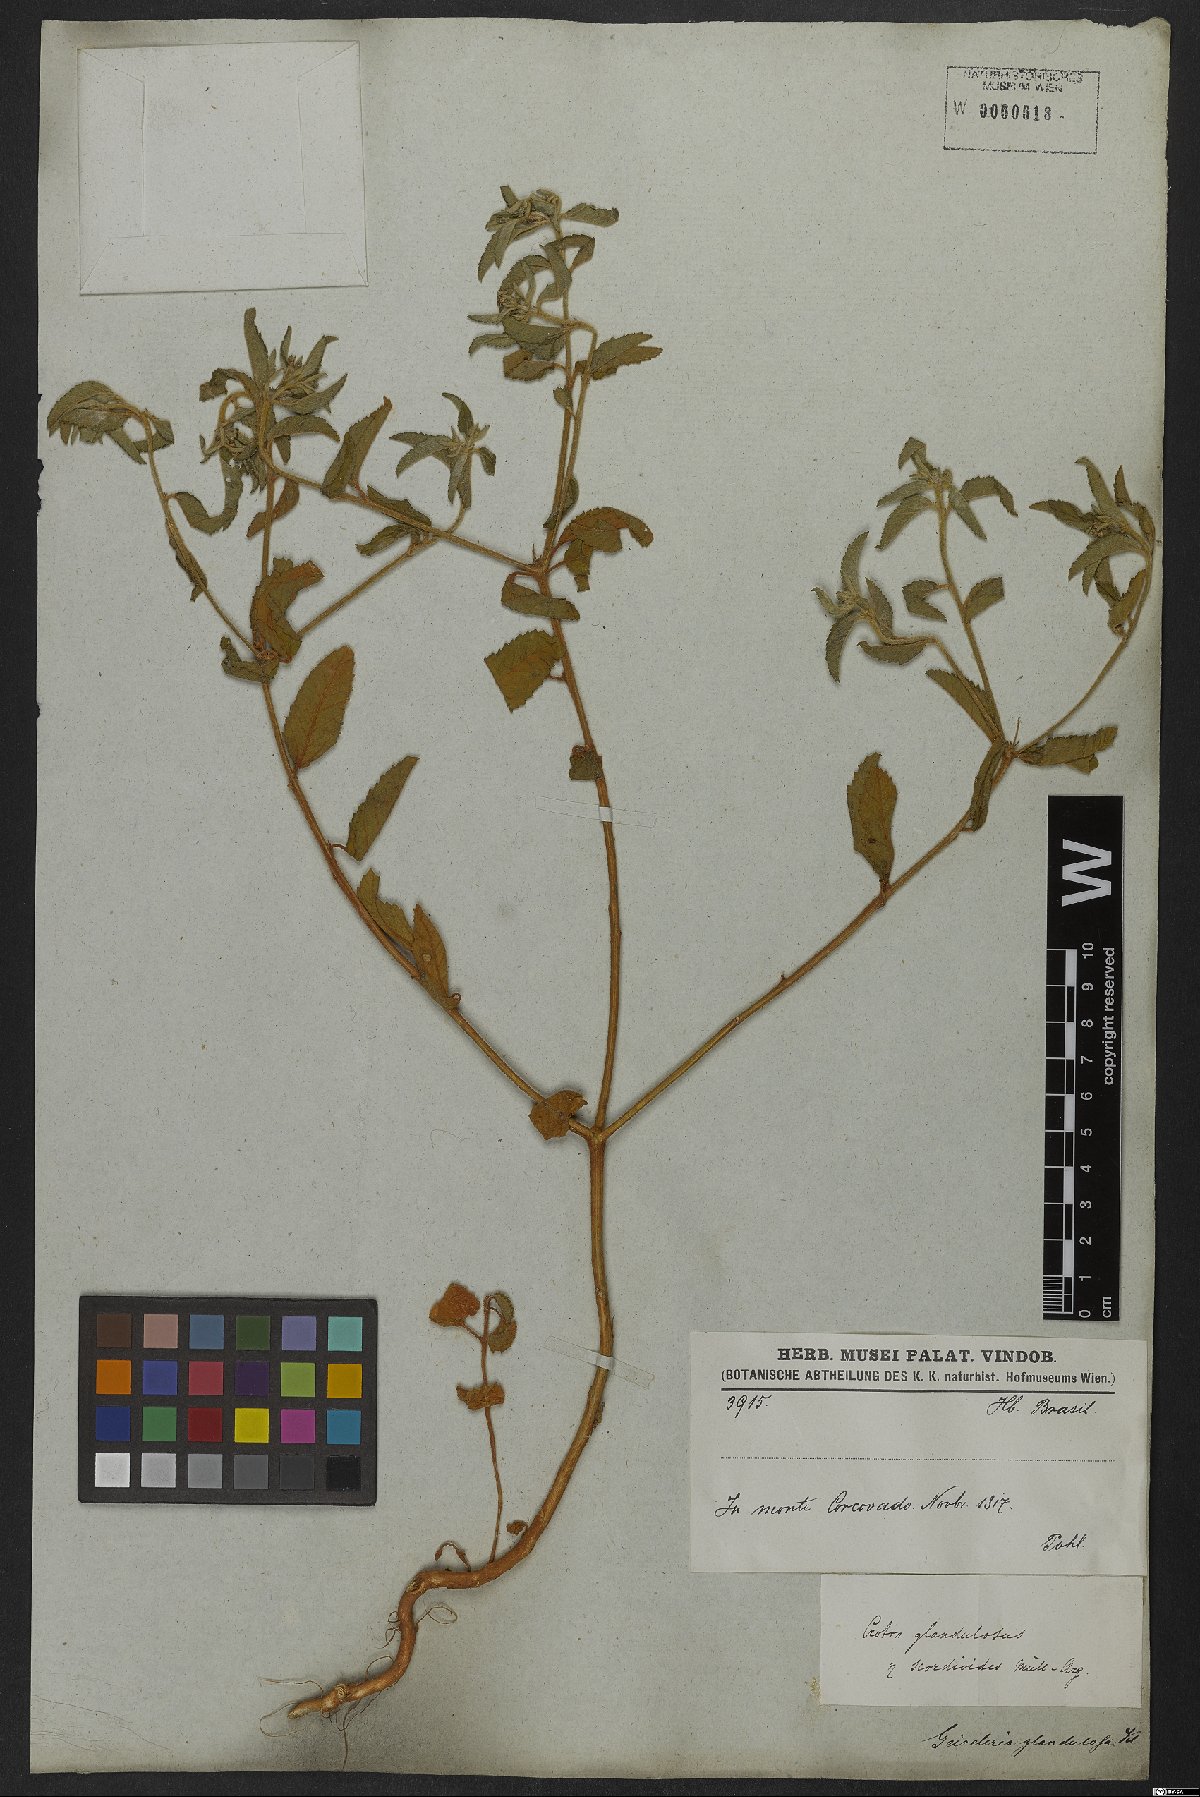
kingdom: Plantae
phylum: Tracheophyta
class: Magnoliopsida
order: Malpighiales
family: Euphorbiaceae
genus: Croton
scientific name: Croton glandulosus
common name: Tropic croton
